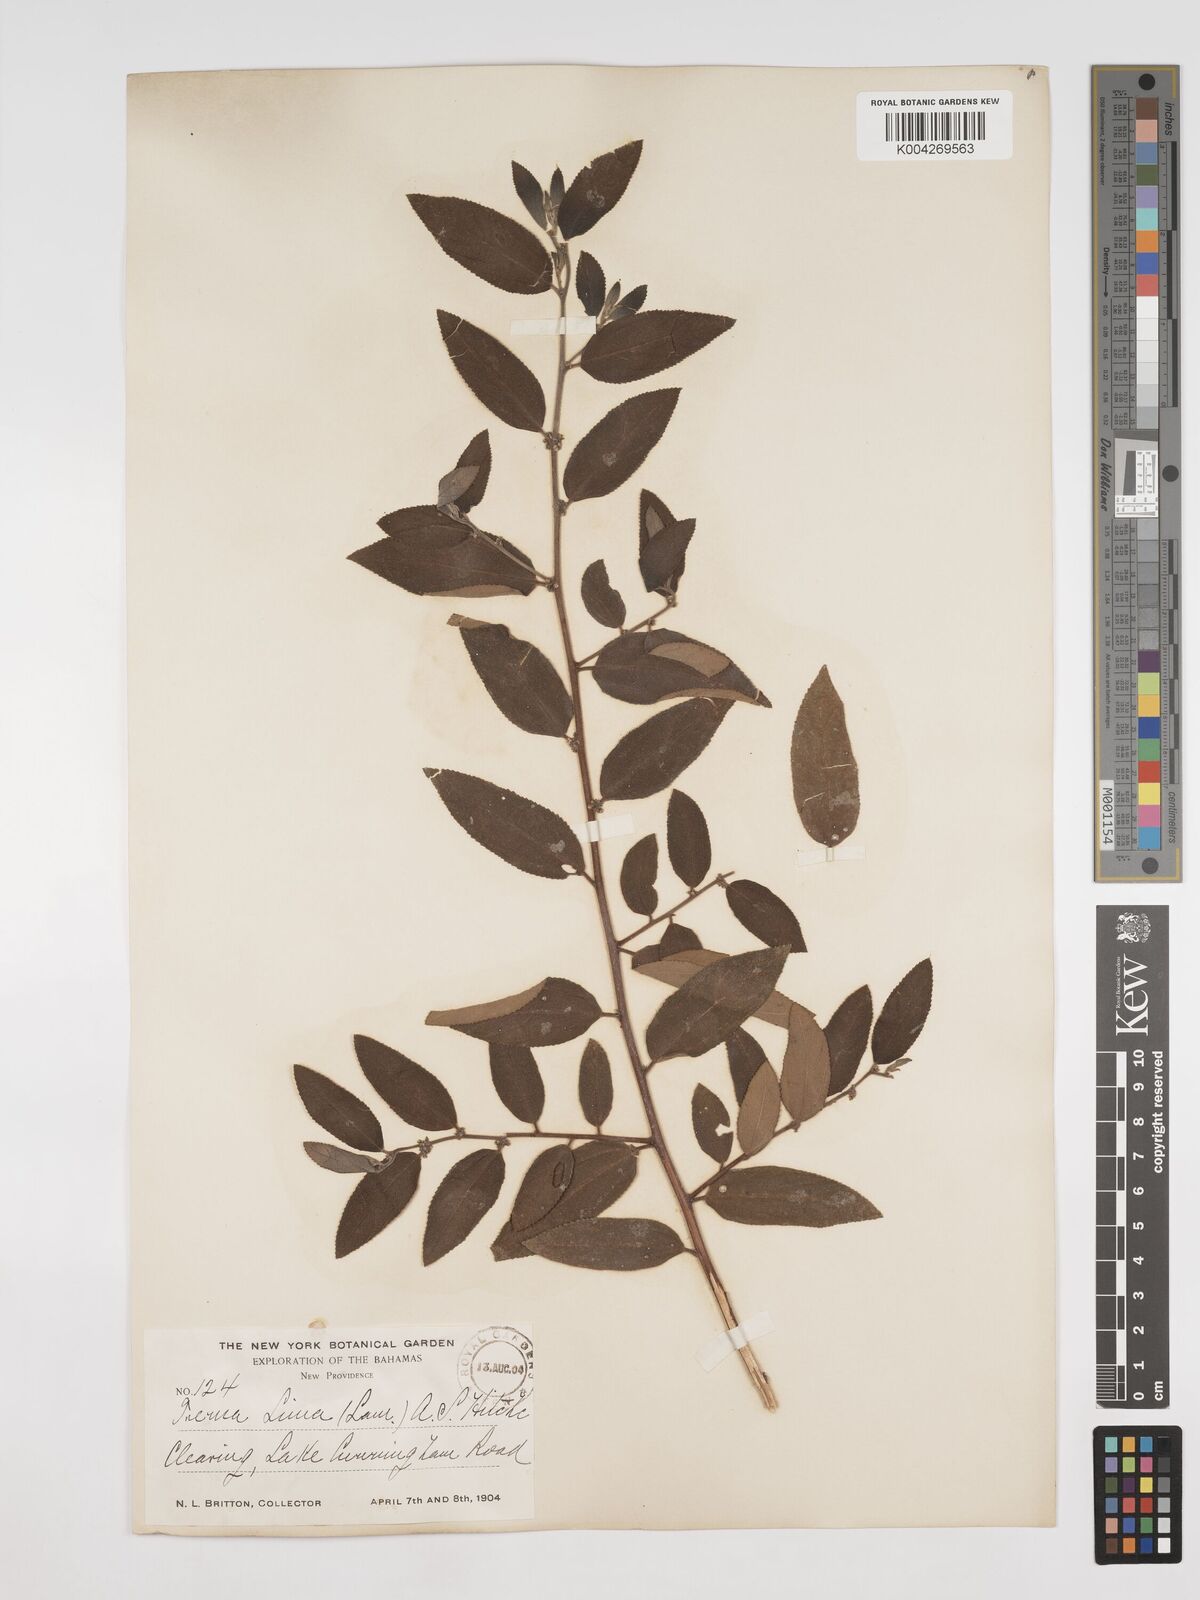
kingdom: Plantae
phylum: Tracheophyta
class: Magnoliopsida
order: Rosales
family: Cannabaceae
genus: Trema
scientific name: Trema micranthum
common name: Jamaican nettletree
